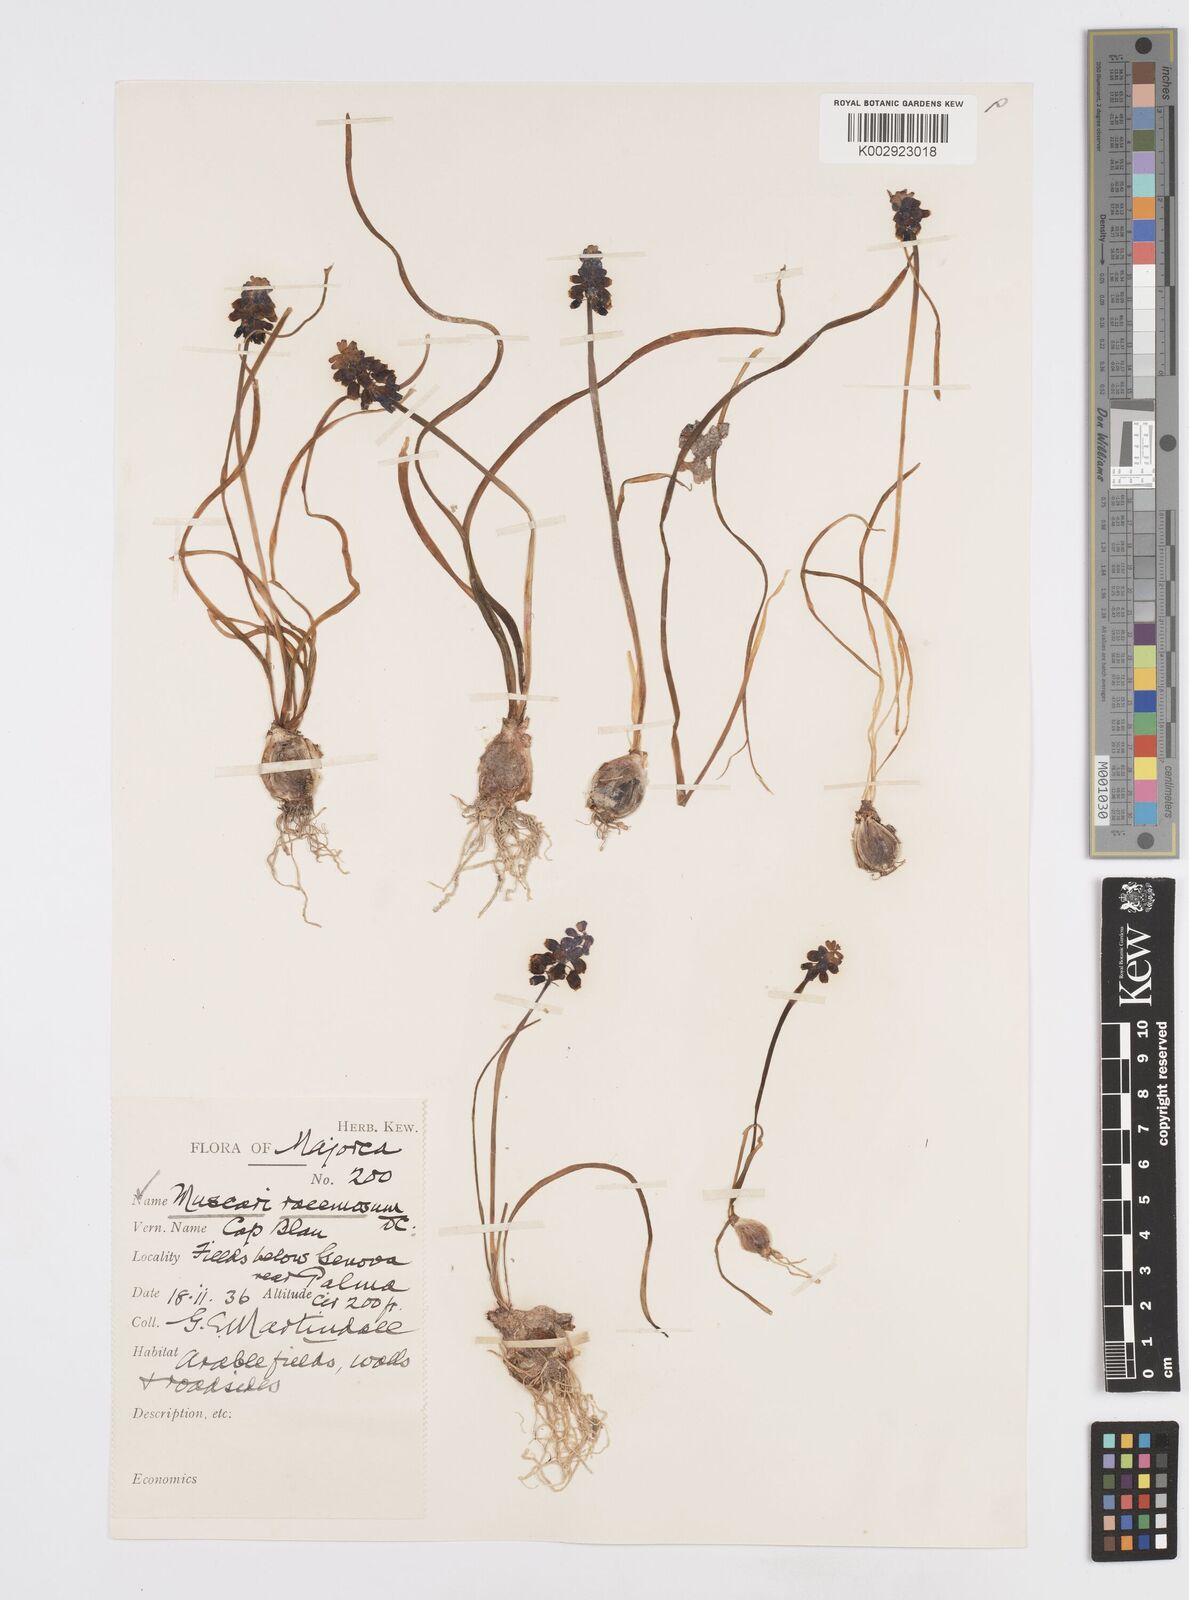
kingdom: Plantae
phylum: Tracheophyta
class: Liliopsida
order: Asparagales
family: Asparagaceae
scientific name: Asparagaceae
